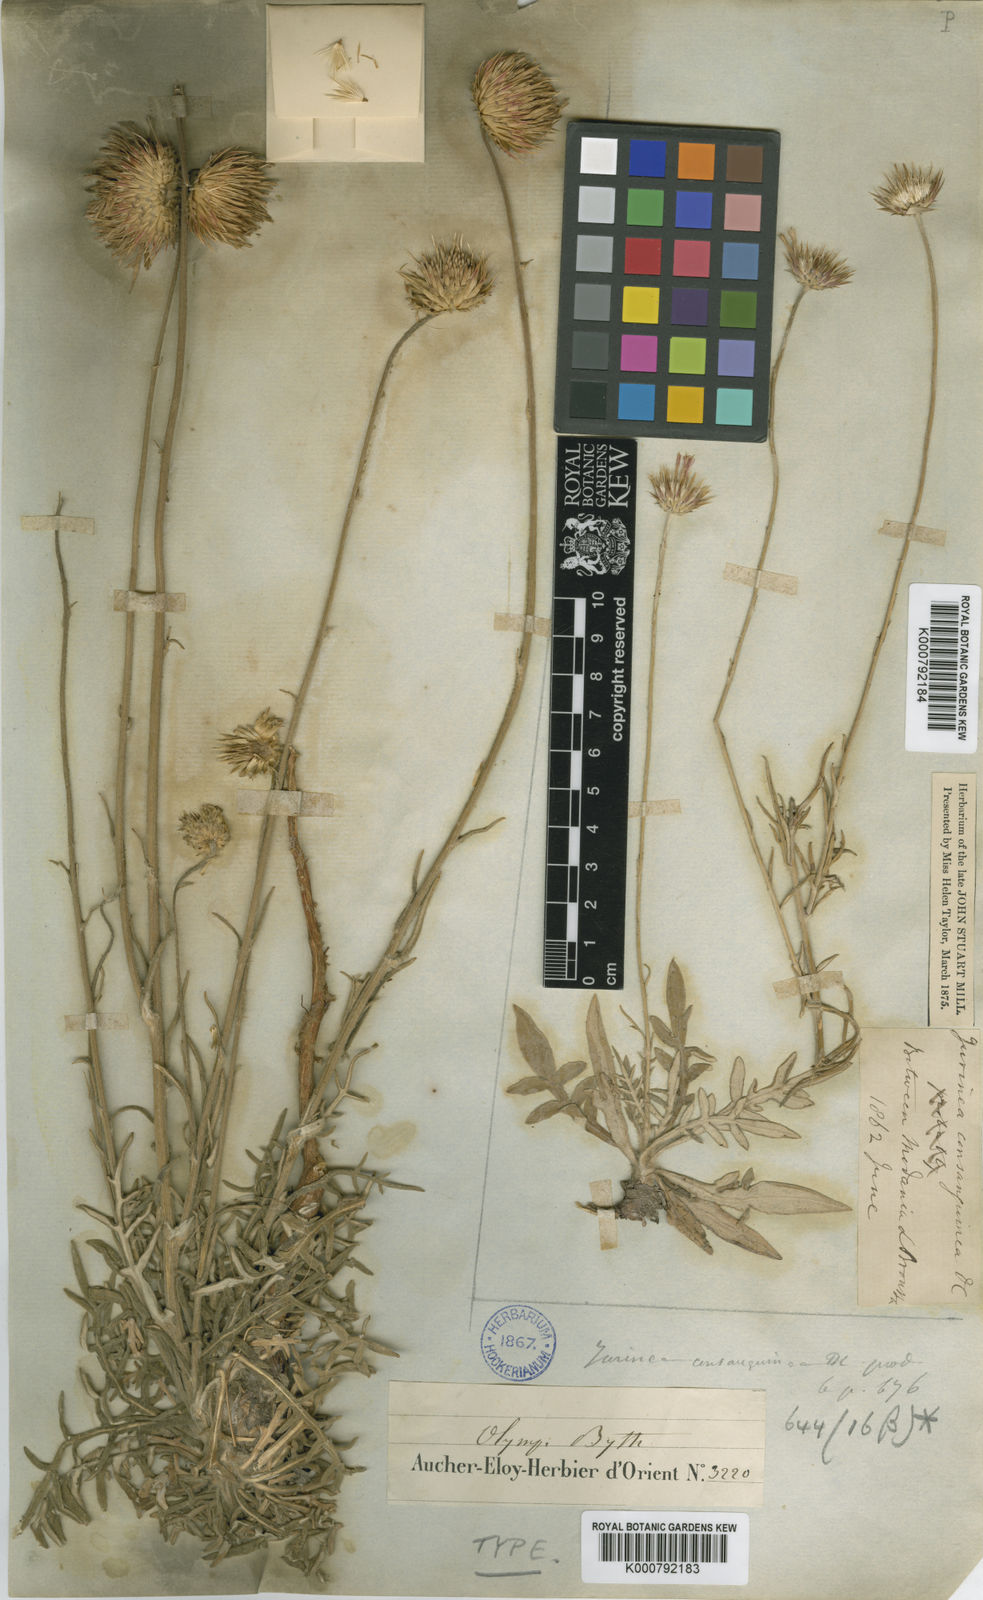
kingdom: Plantae
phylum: Tracheophyta
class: Magnoliopsida
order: Asterales
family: Asteraceae
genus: Jurinea
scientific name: Jurinea consanguinea
